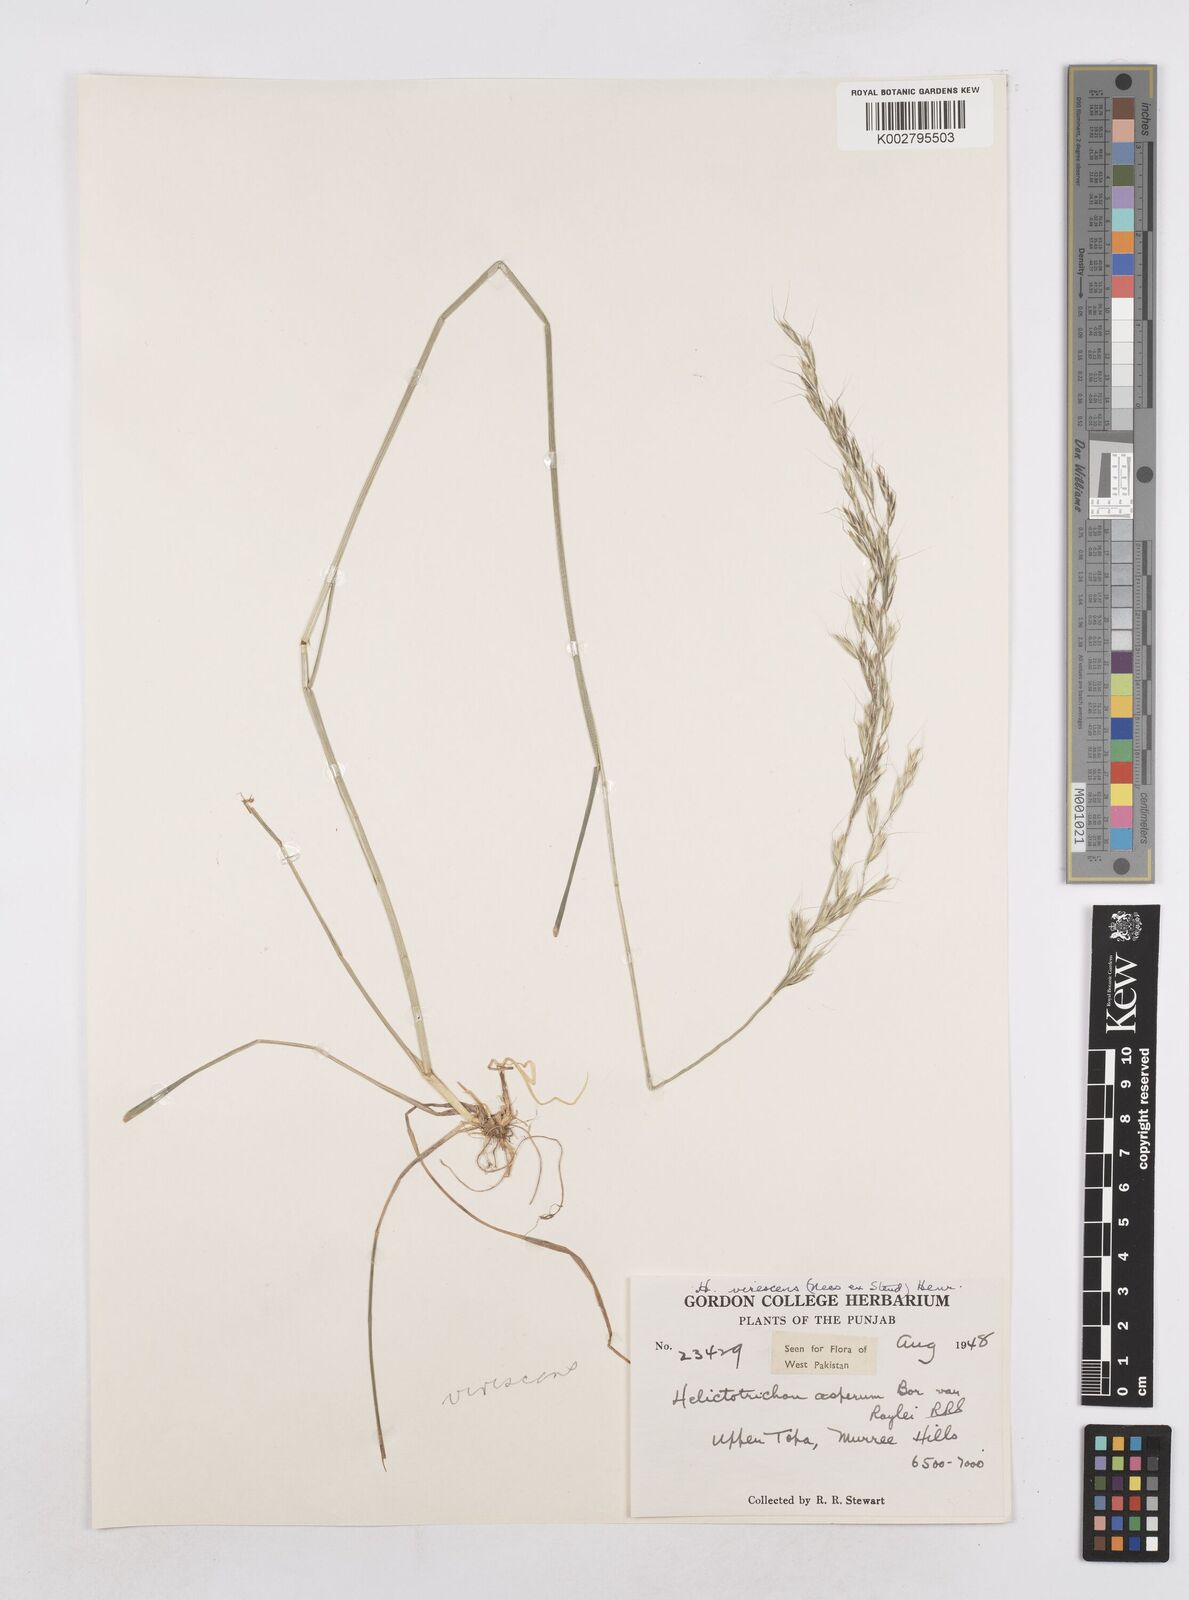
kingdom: Plantae
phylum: Tracheophyta
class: Liliopsida
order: Poales
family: Poaceae
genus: Trisetopsis
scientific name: Trisetopsis junghuhnii
